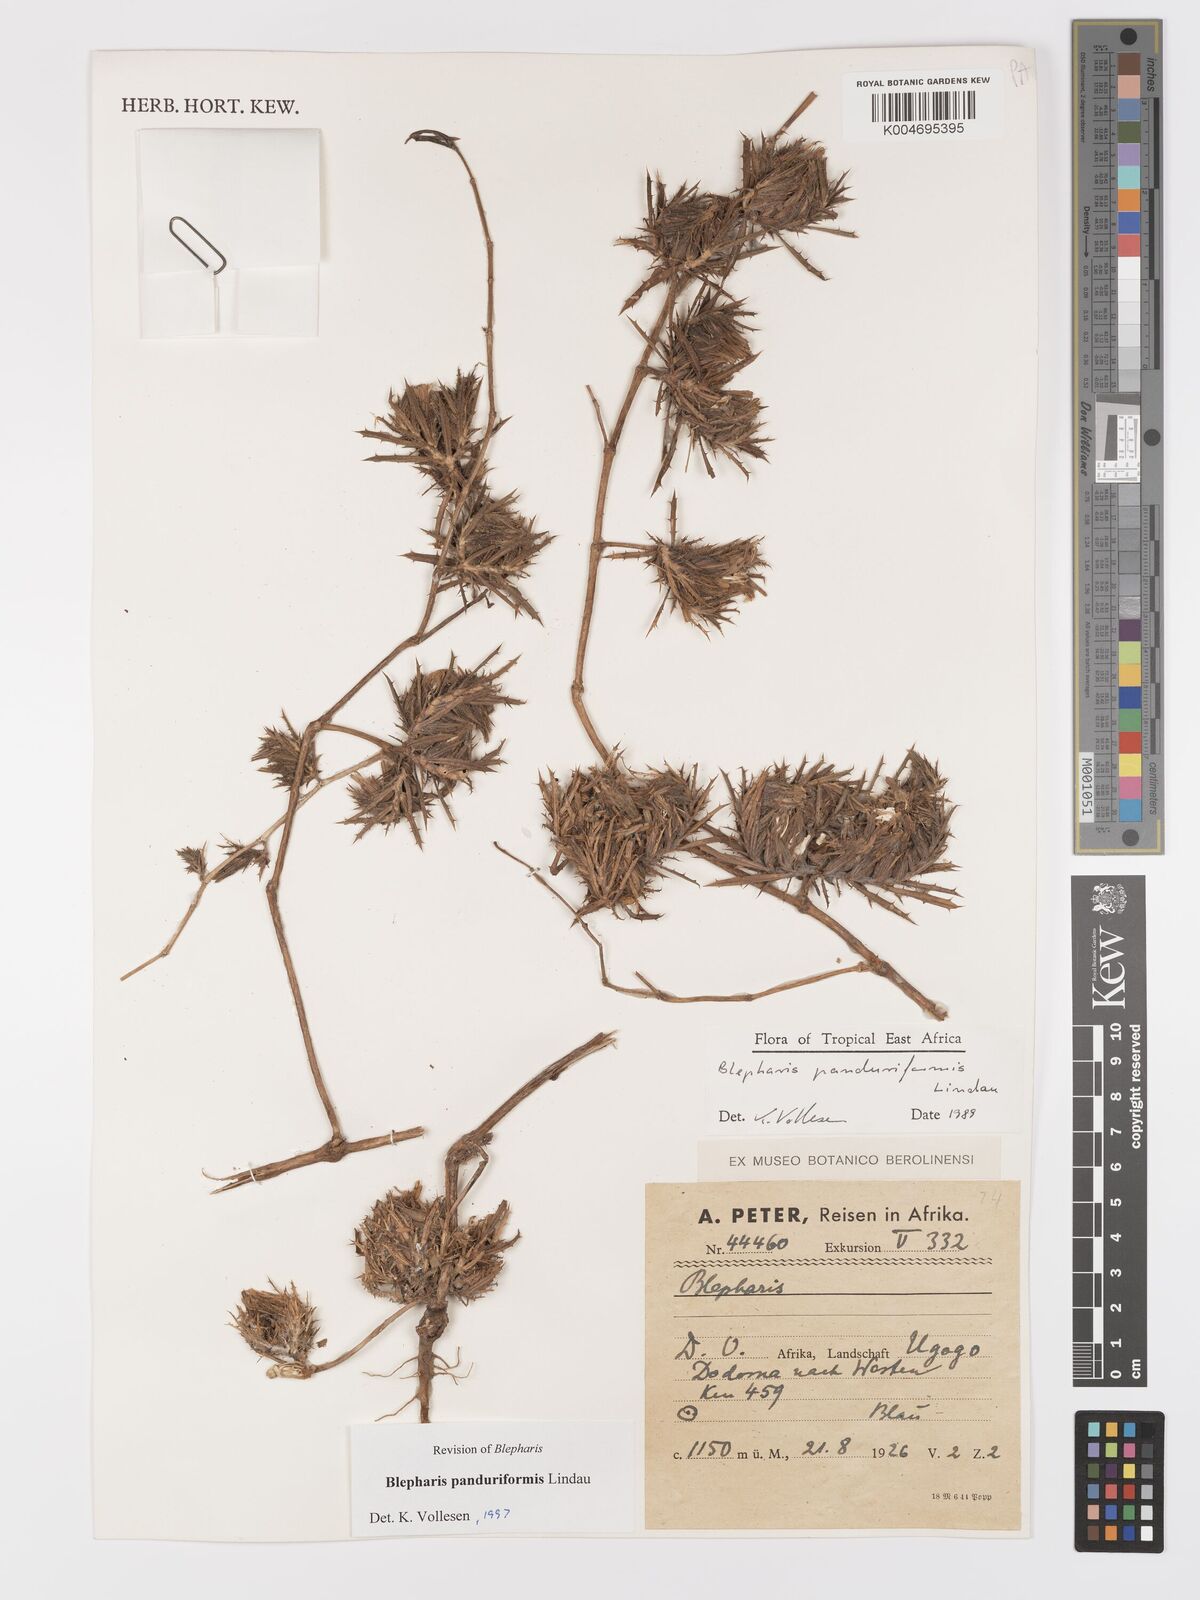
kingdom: Plantae
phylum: Tracheophyta
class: Magnoliopsida
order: Lamiales
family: Acanthaceae
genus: Blepharis
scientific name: Blepharis panduriformis
